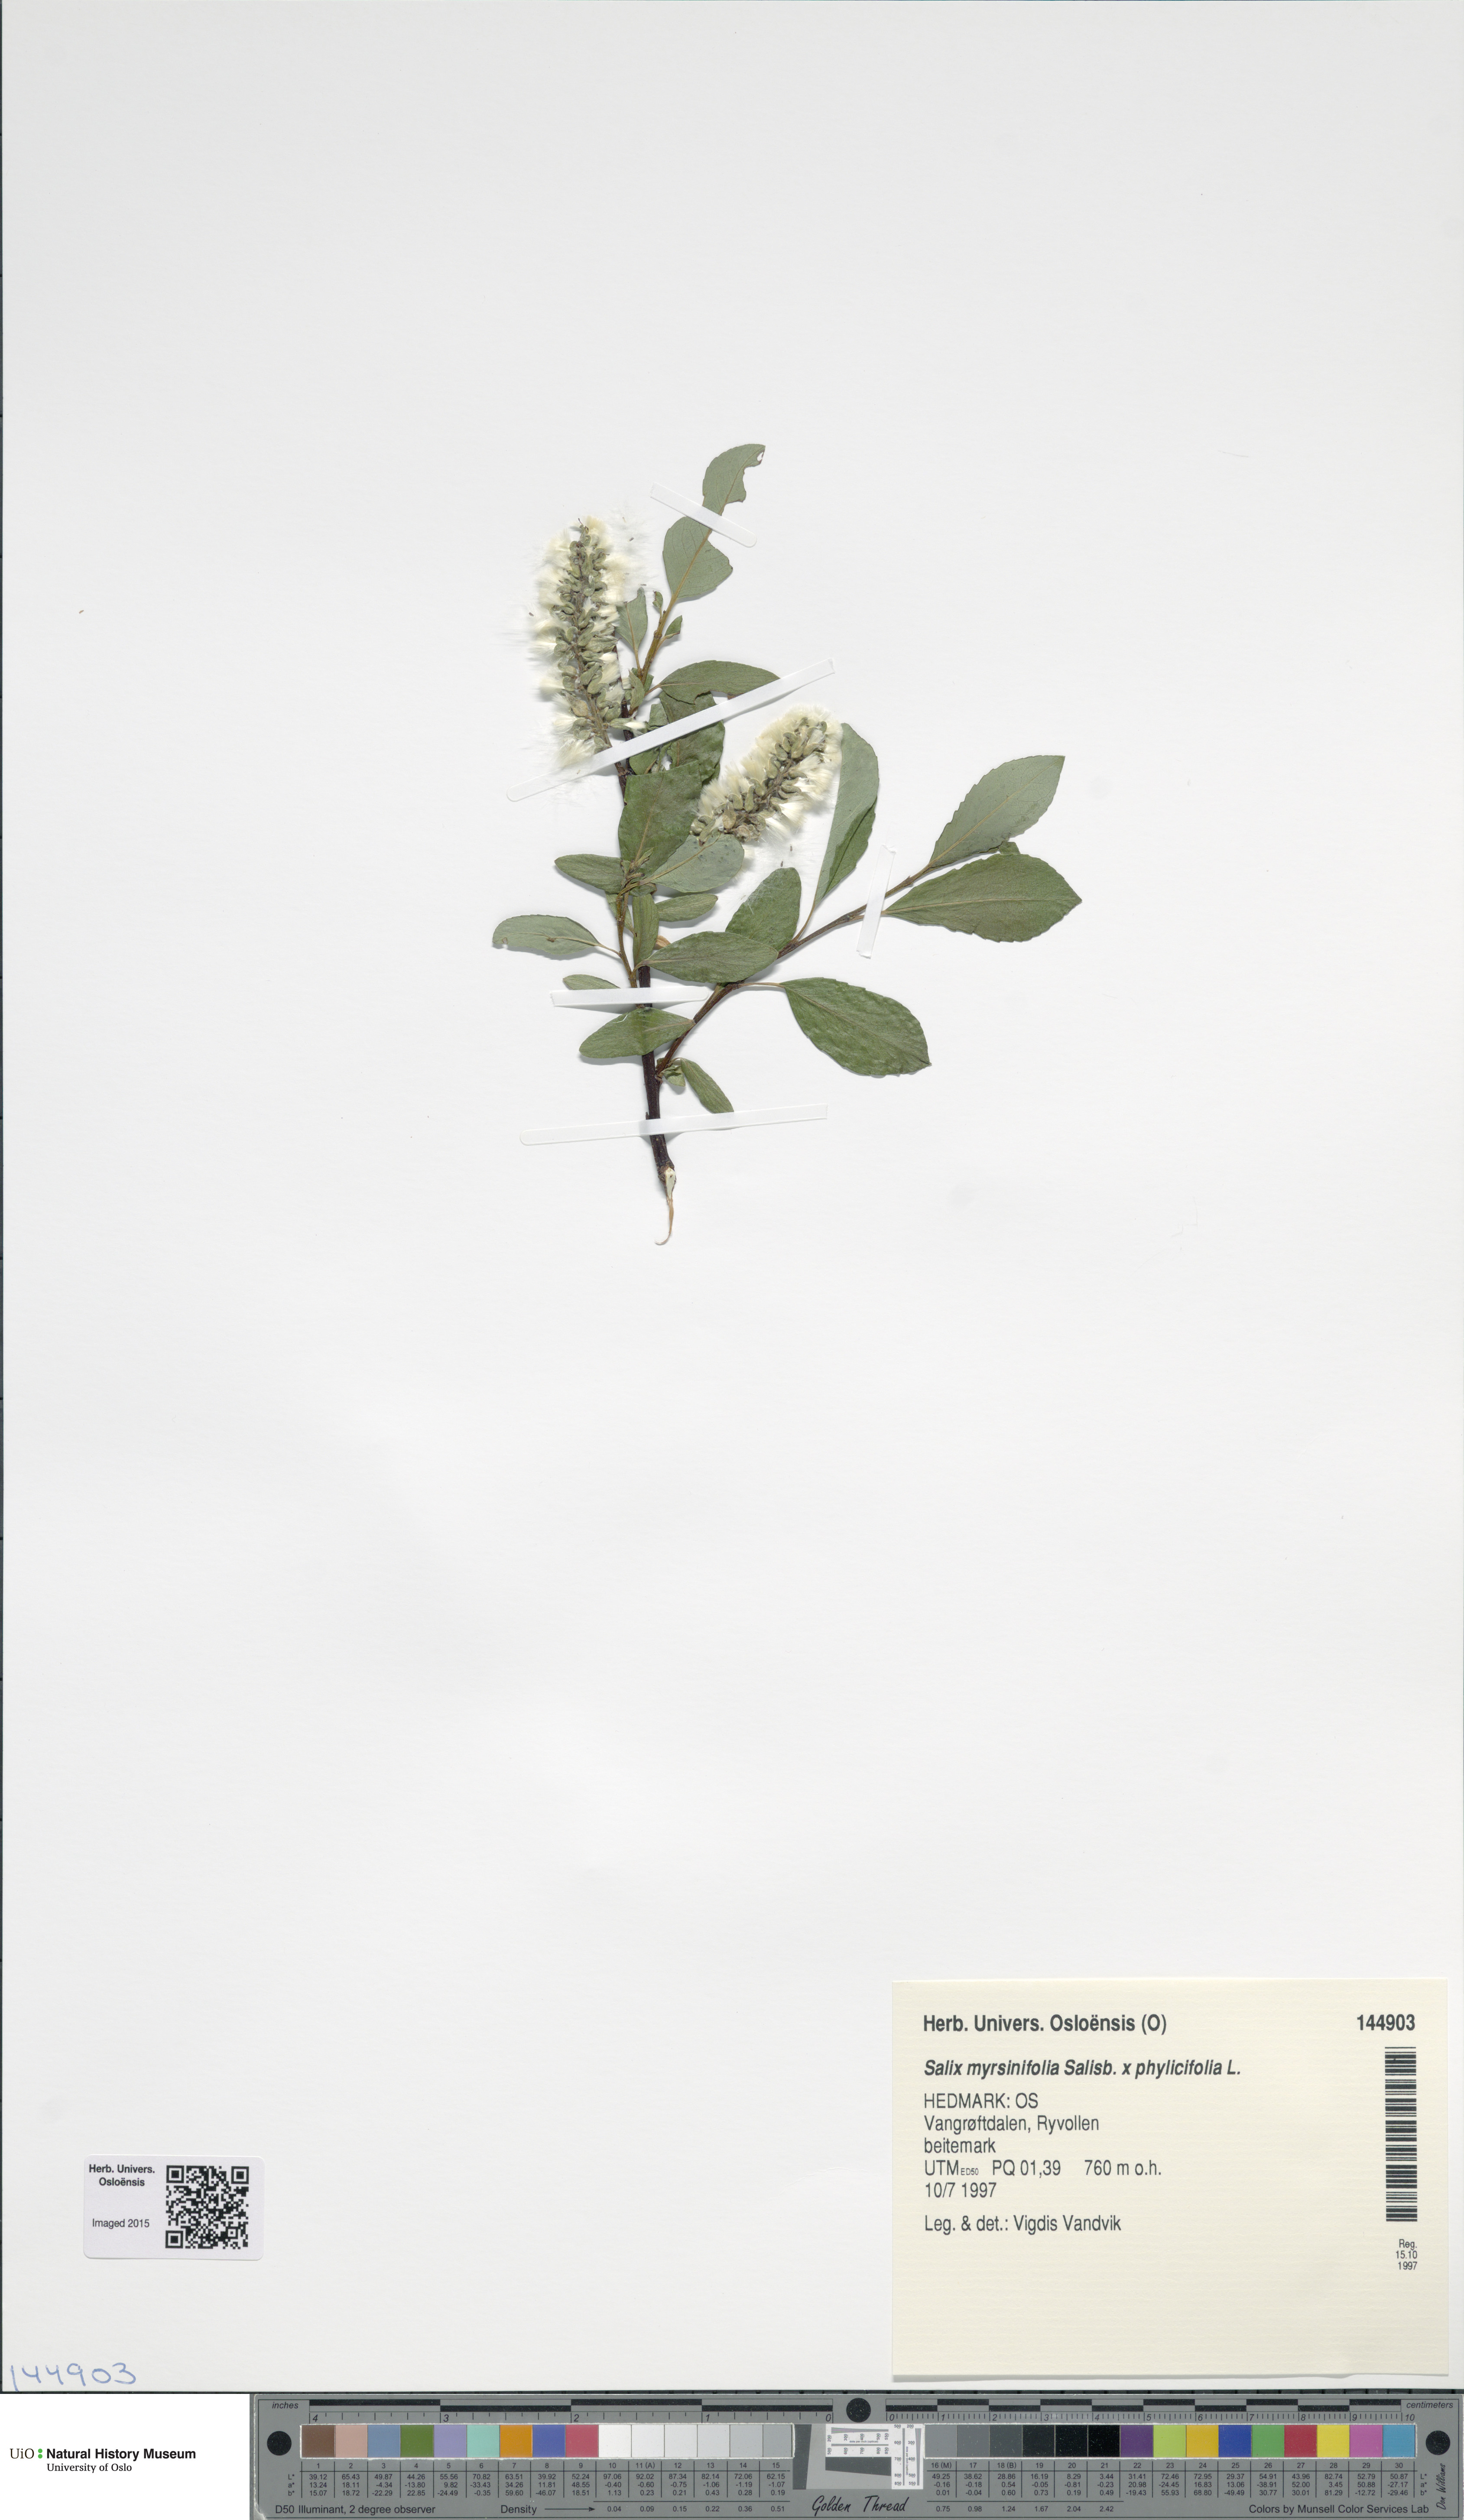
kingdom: Plantae
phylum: Tracheophyta
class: Magnoliopsida
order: Malpighiales
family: Salicaceae
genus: Salix
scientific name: Salix
